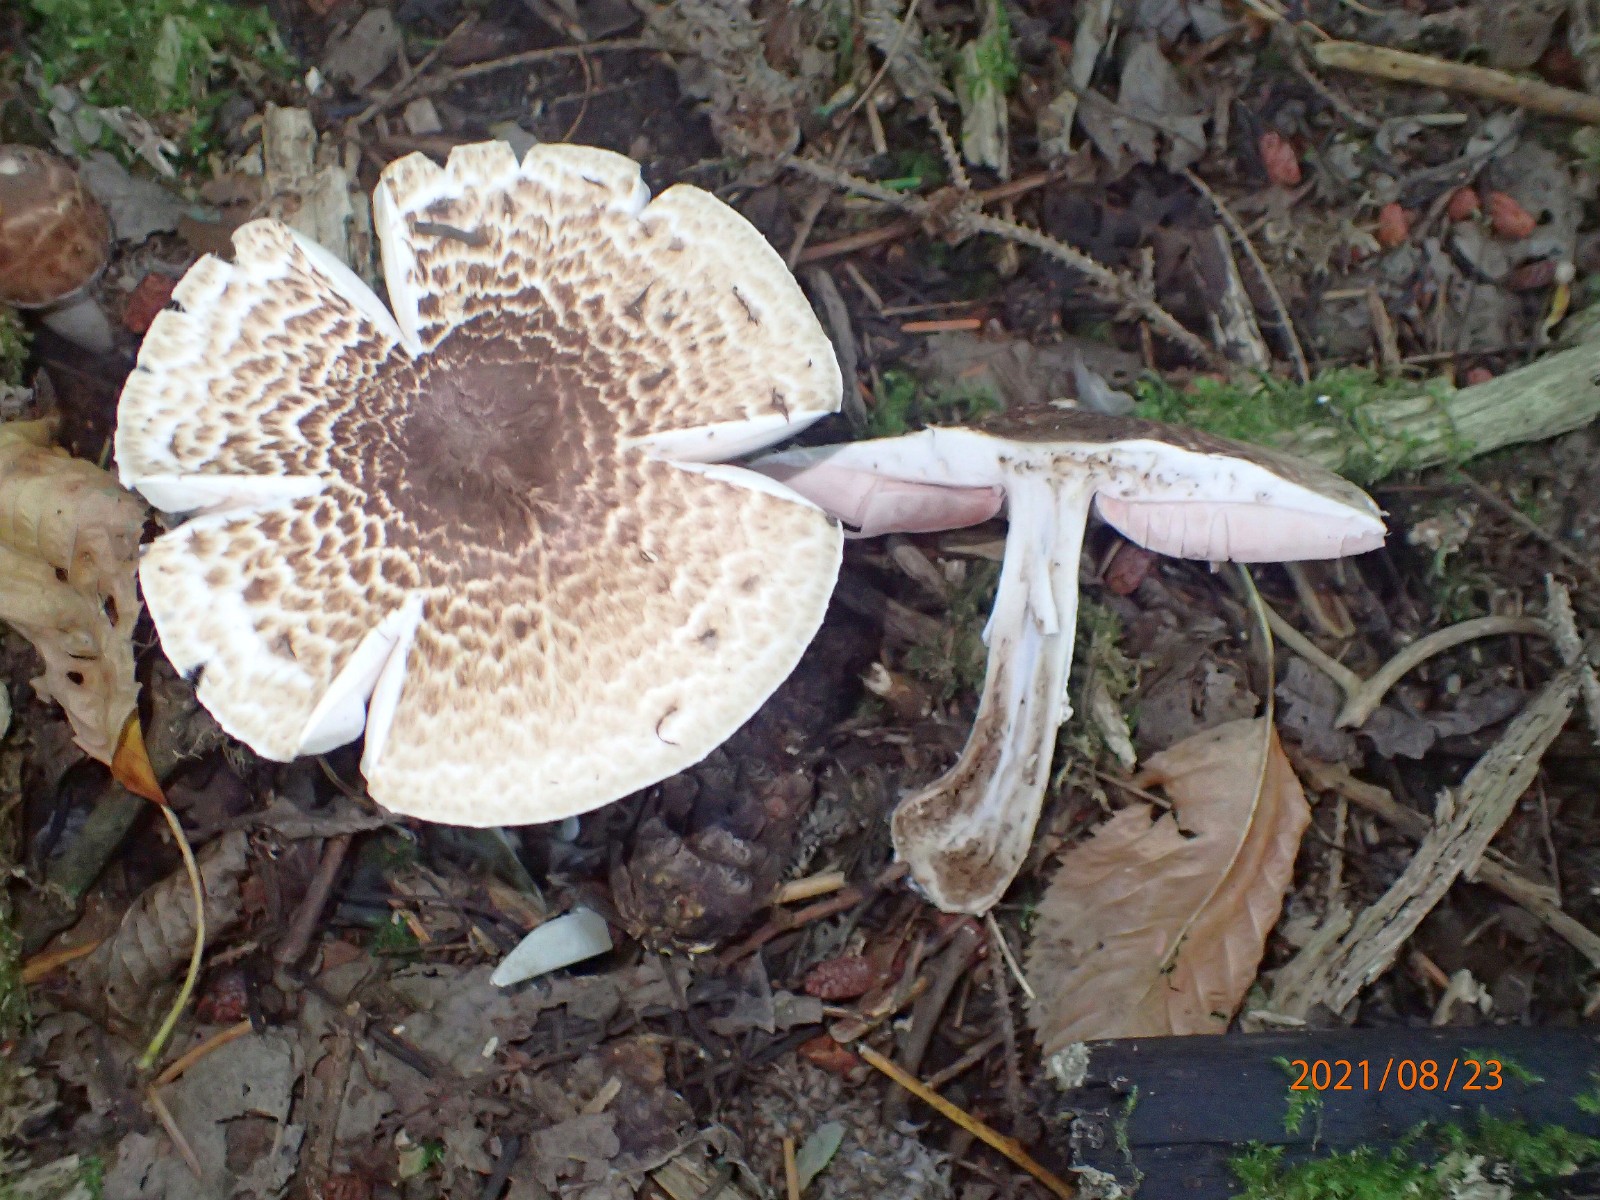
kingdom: Fungi
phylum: Basidiomycota
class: Agaricomycetes
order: Agaricales
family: Agaricaceae
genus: Agaricus
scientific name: Agaricus impudicus
